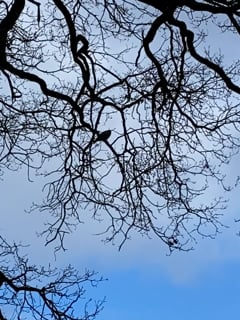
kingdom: Animalia
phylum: Chordata
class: Aves
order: Accipitriformes
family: Accipitridae
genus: Buteo
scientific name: Buteo buteo
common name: Common buzzard
